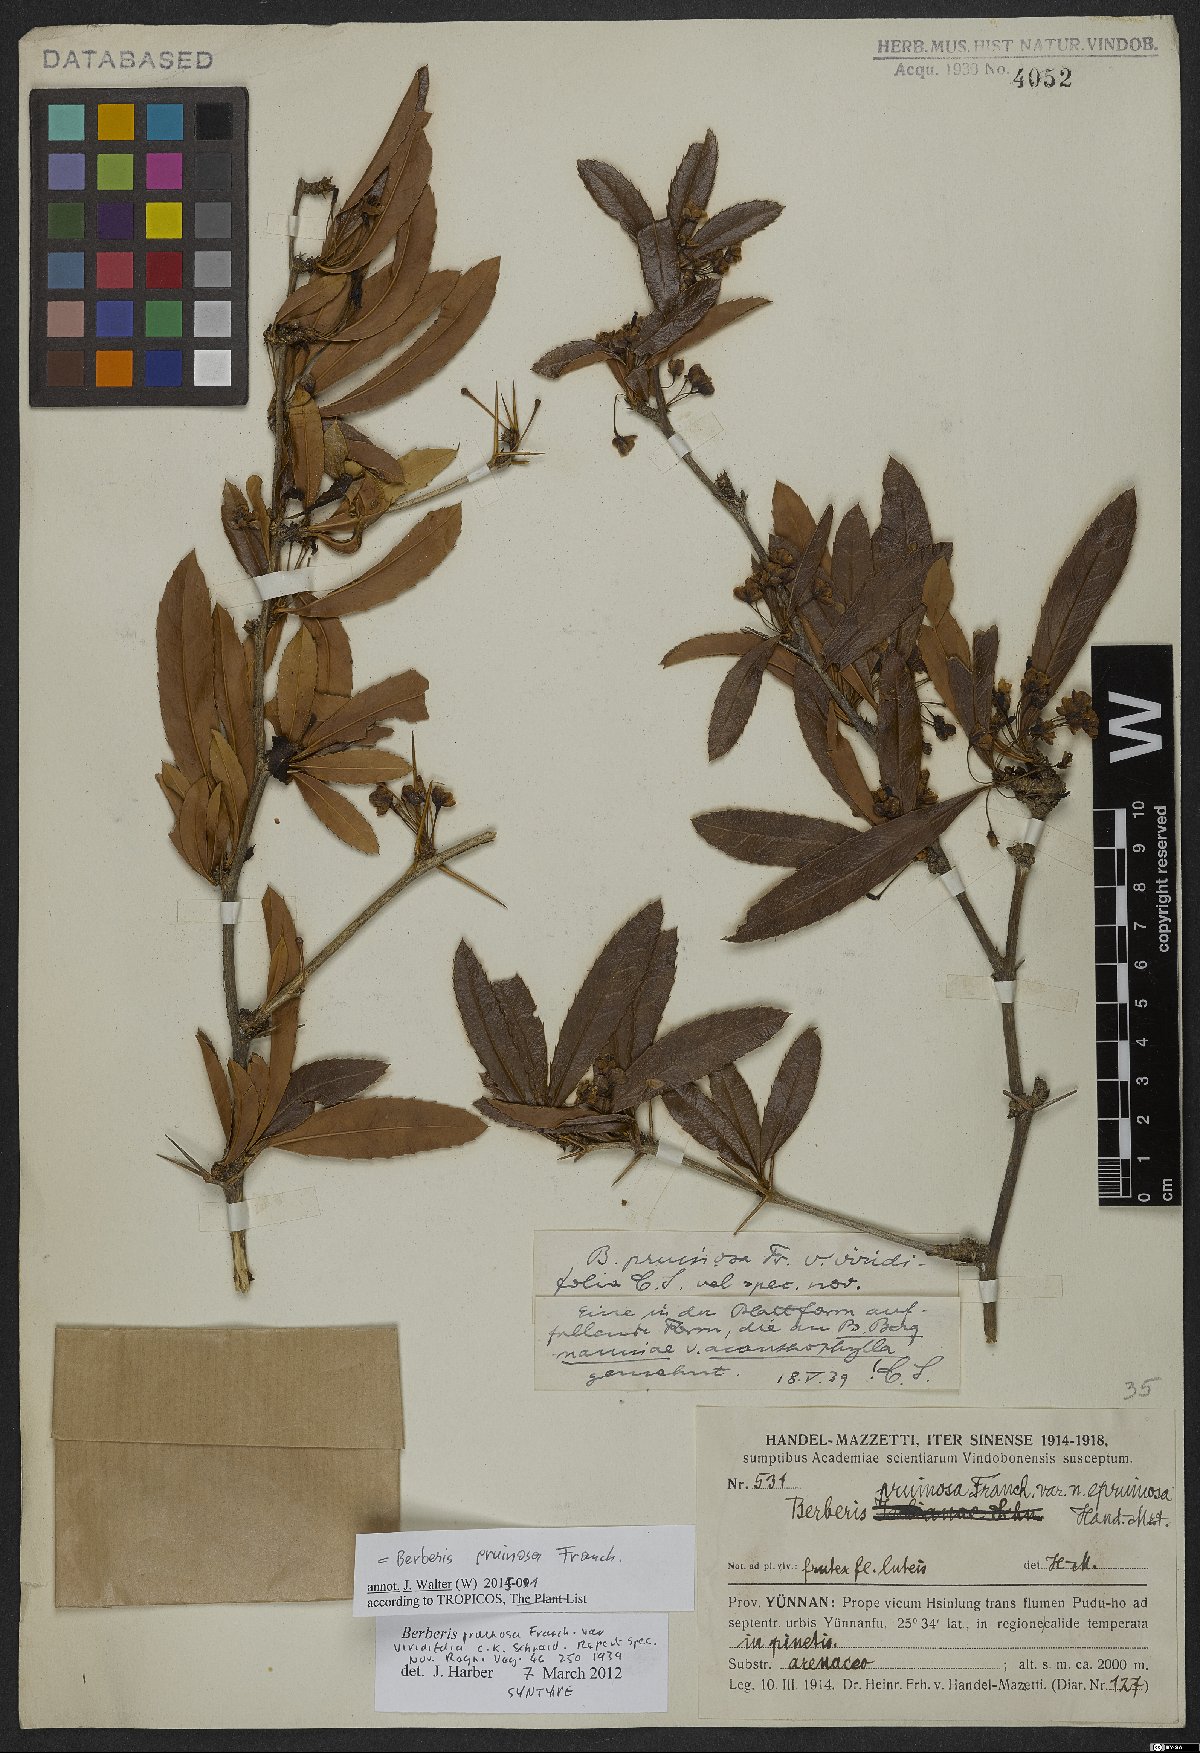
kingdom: Plantae
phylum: Tracheophyta
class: Magnoliopsida
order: Ranunculales
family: Berberidaceae
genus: Berberis
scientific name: Berberis pruinosa
